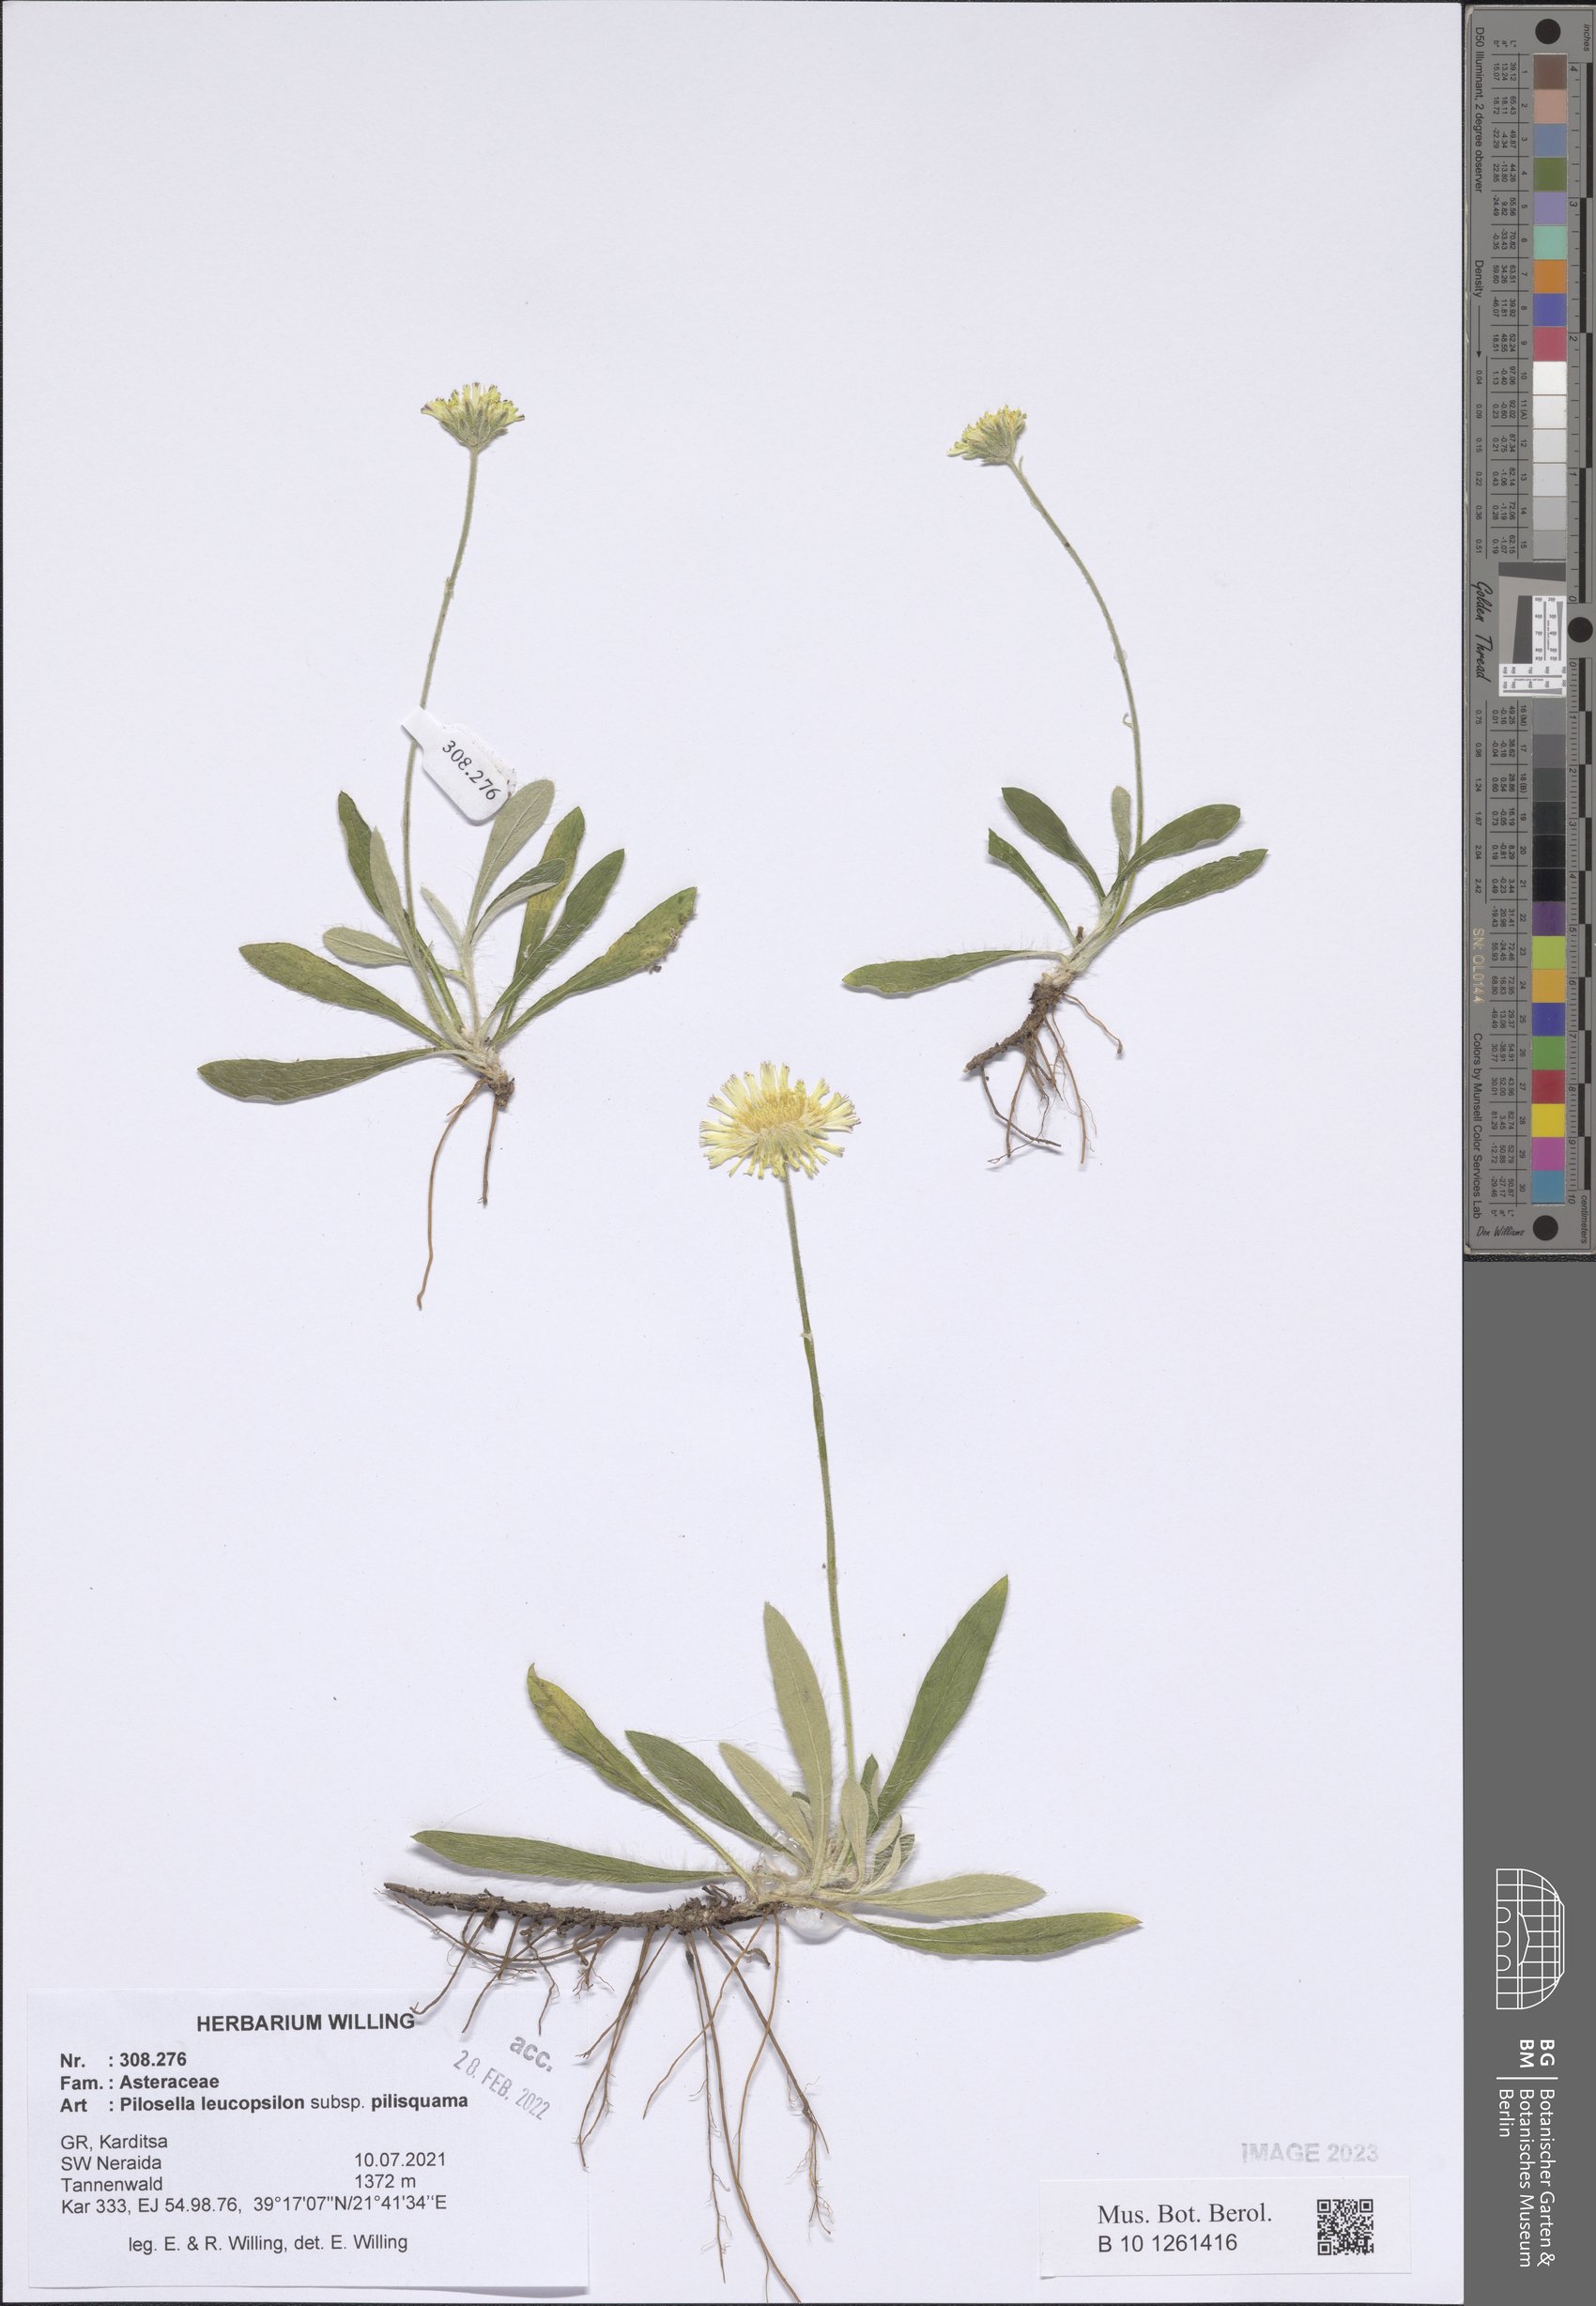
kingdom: Plantae
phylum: Tracheophyta
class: Magnoliopsida
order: Asterales
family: Asteraceae
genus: Pilosella
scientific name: Pilosella leucopsilon
